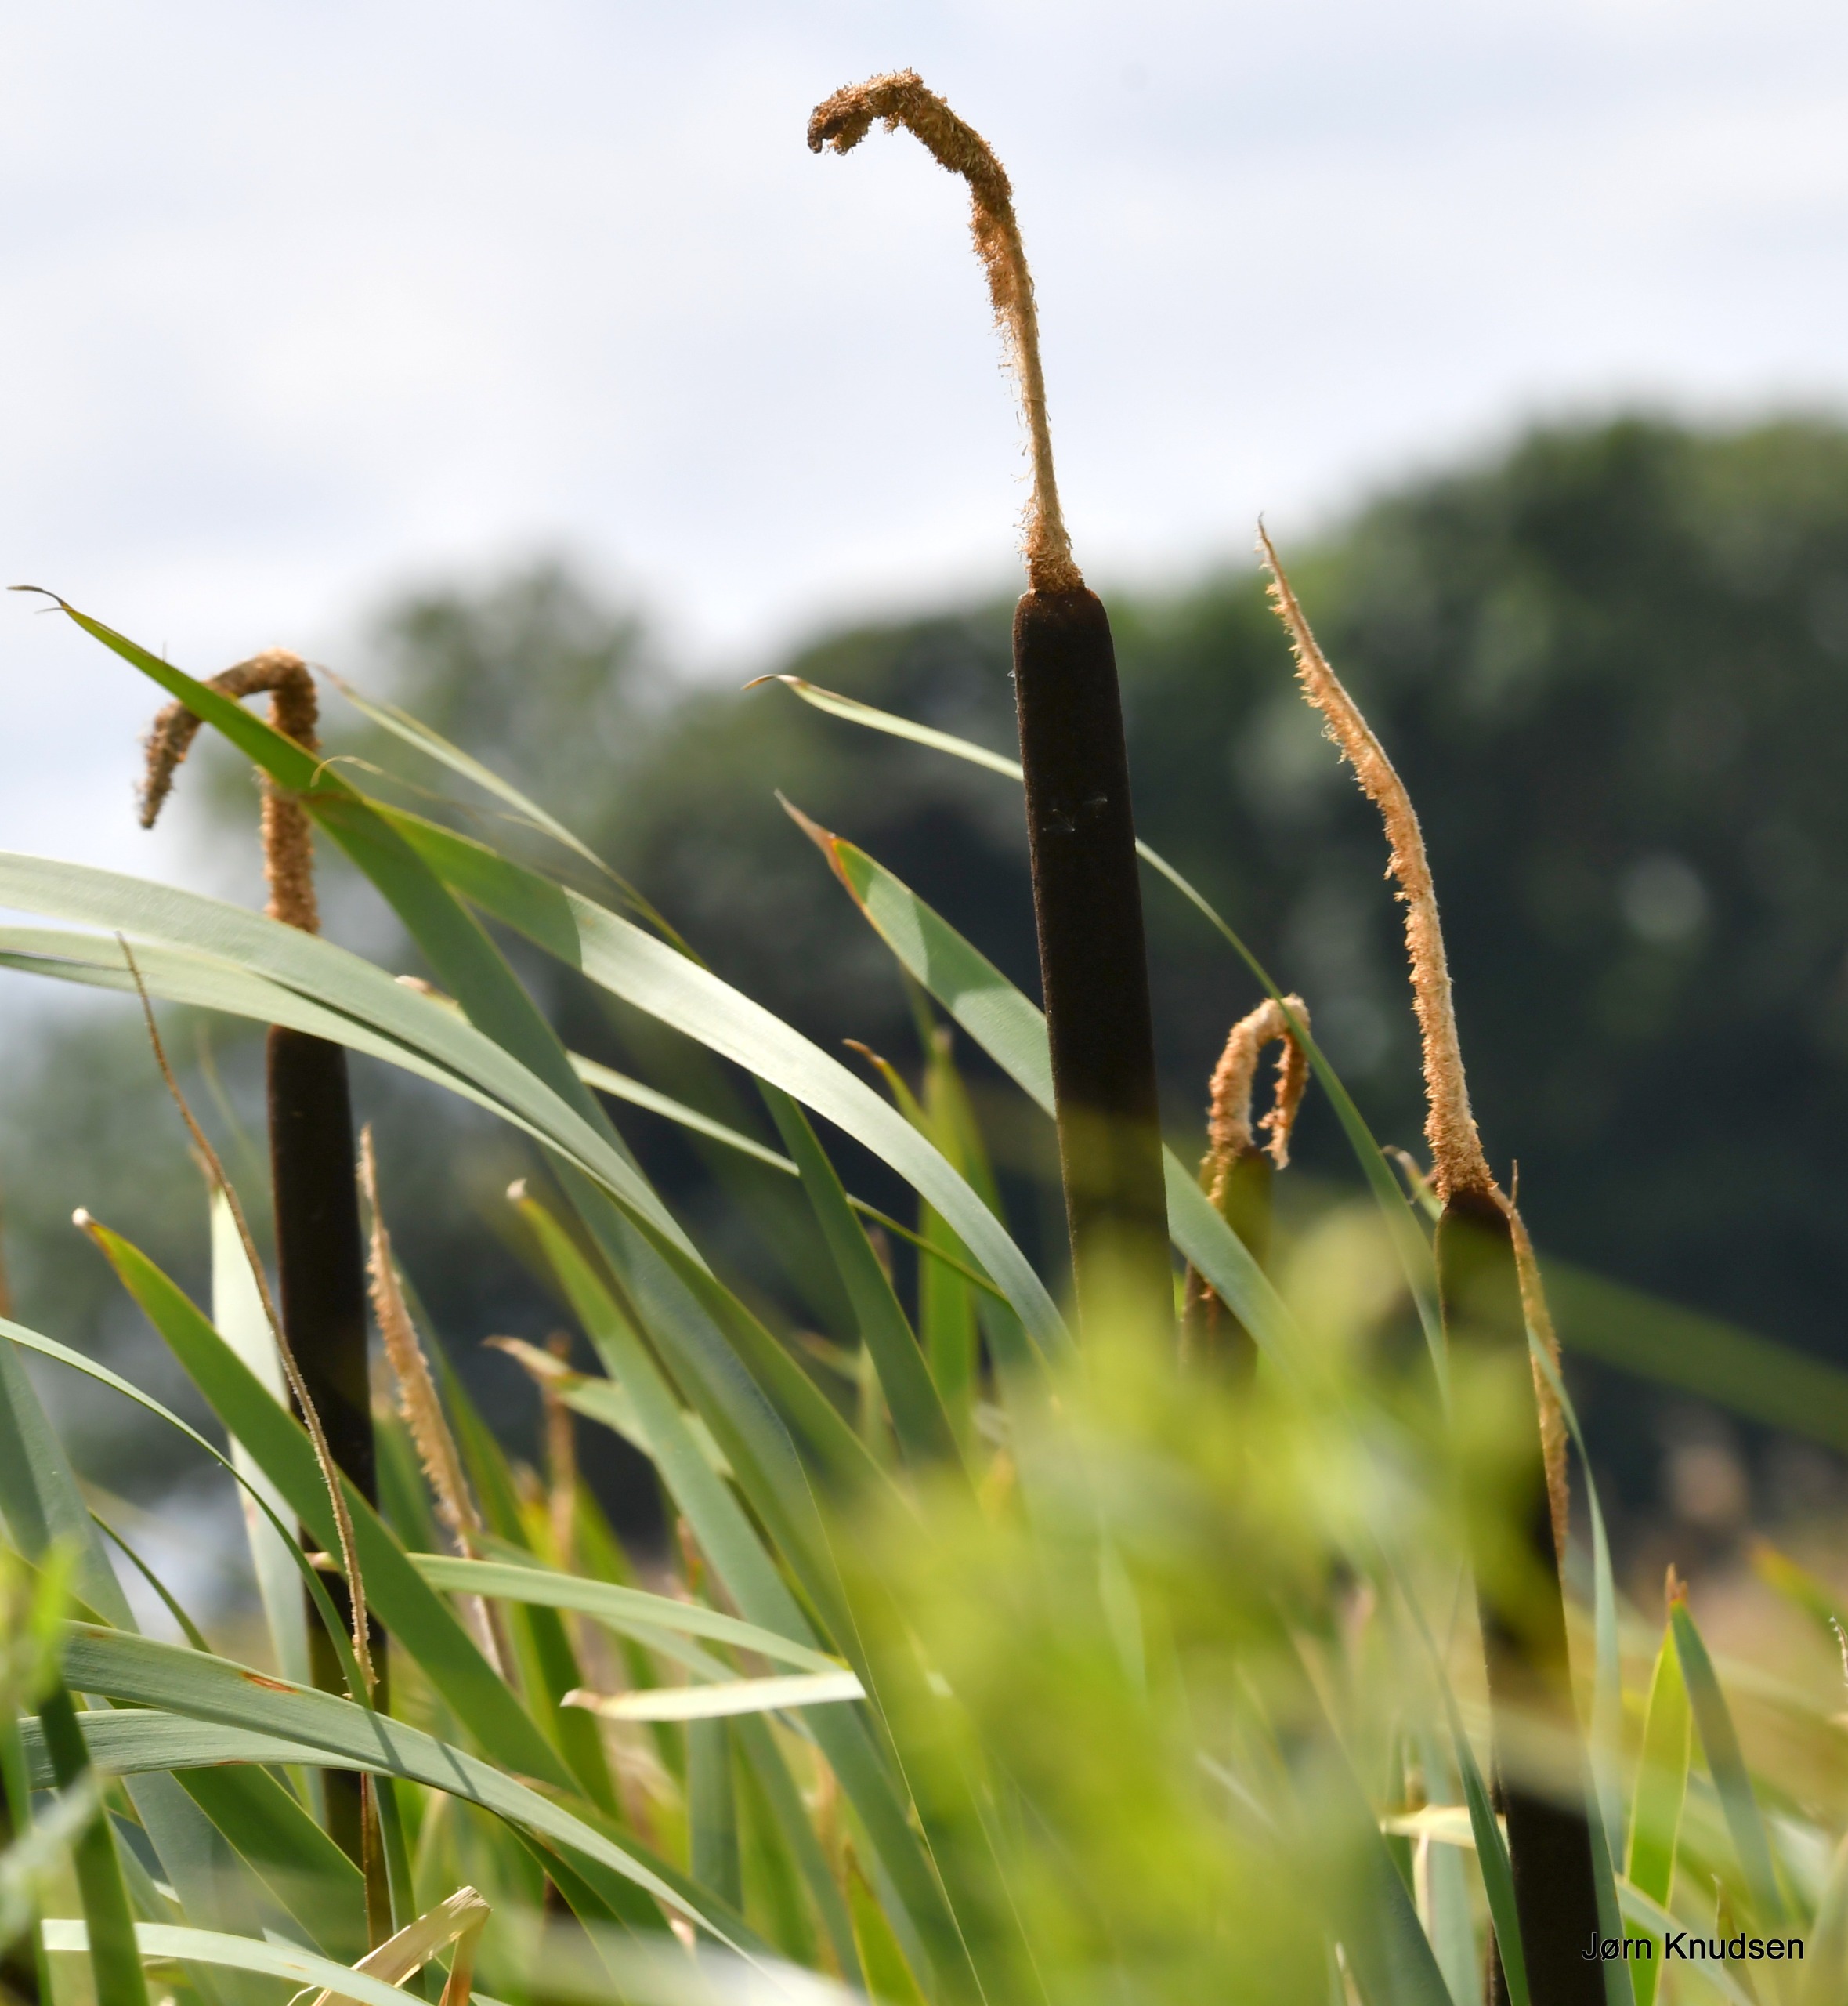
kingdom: Plantae
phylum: Tracheophyta
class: Liliopsida
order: Poales
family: Typhaceae
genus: Typha
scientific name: Typha latifolia
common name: Bredbladet dunhammer
